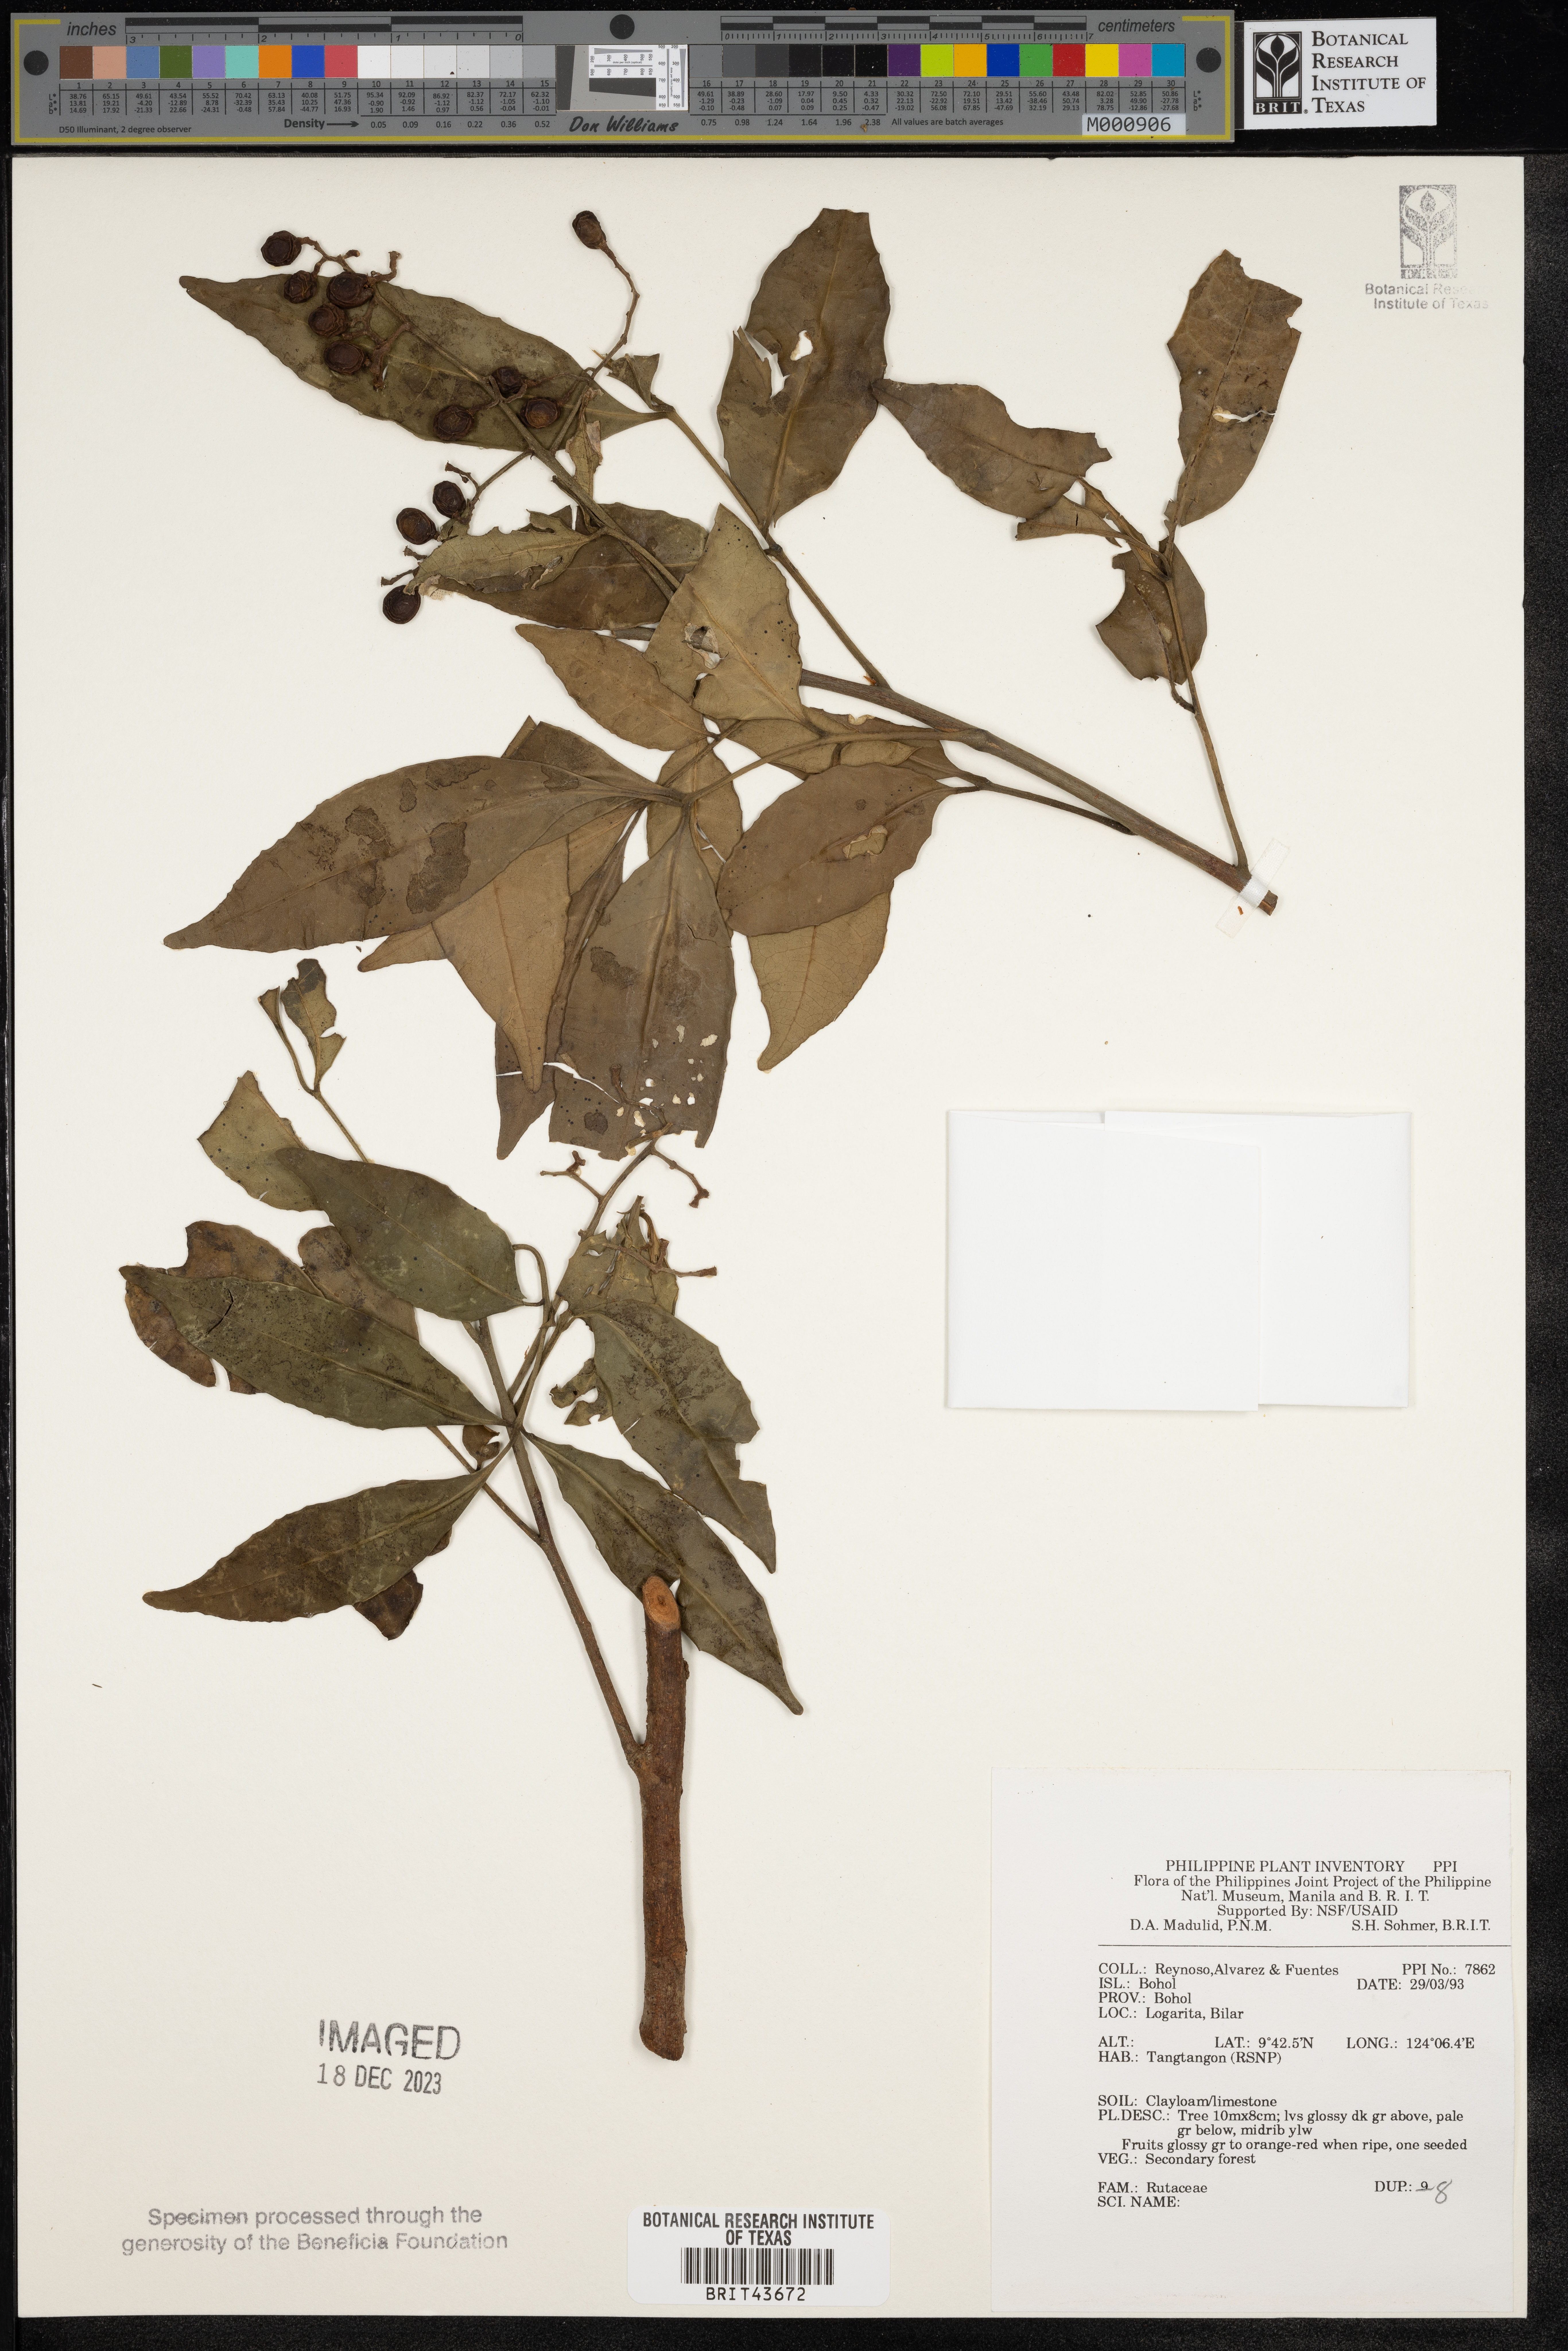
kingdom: Plantae
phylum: Tracheophyta
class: Magnoliopsida
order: Sapindales
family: Rutaceae
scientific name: Rutaceae
